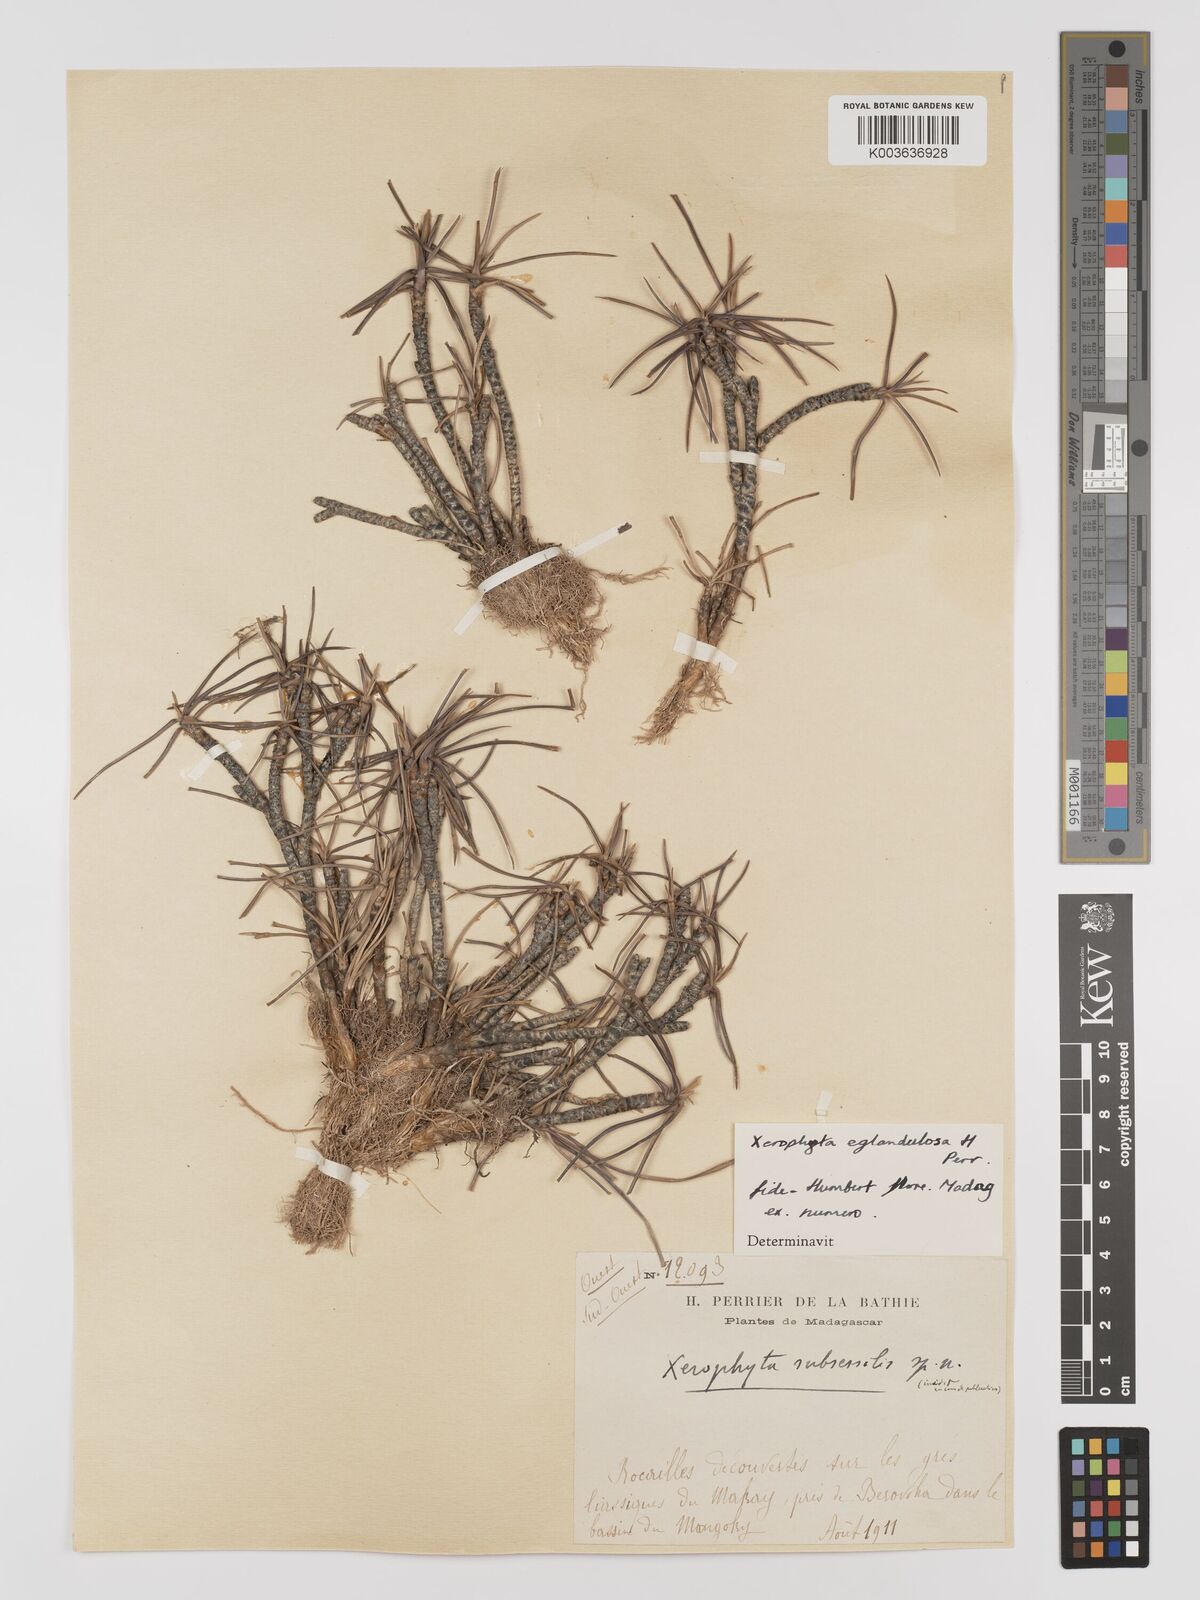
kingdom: Plantae
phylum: Tracheophyta
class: Liliopsida
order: Pandanales
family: Velloziaceae
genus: Xerophyta
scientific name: Xerophyta eglandulosa
